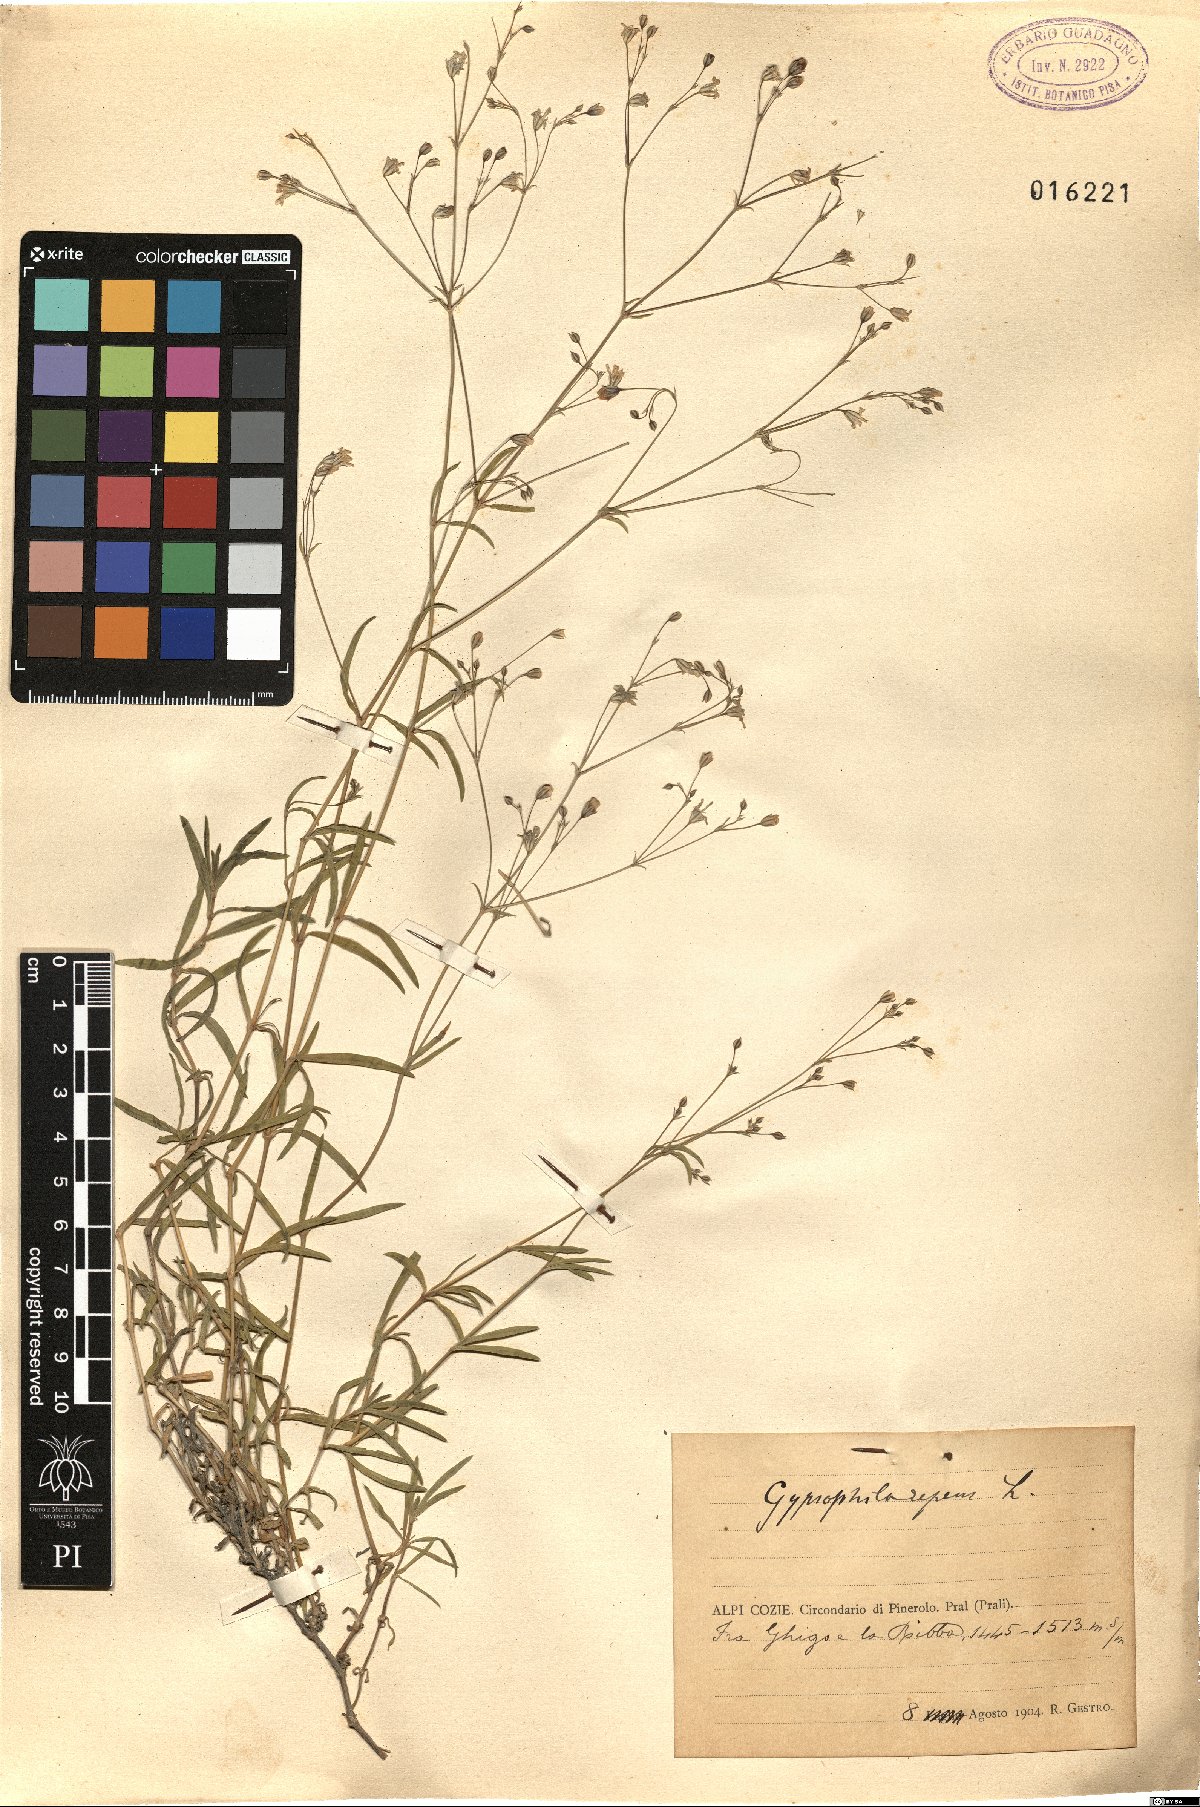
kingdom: Plantae
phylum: Tracheophyta
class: Magnoliopsida
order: Caryophyllales
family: Caryophyllaceae
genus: Gypsophila
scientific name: Gypsophila repens
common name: Creeping baby's-breath
